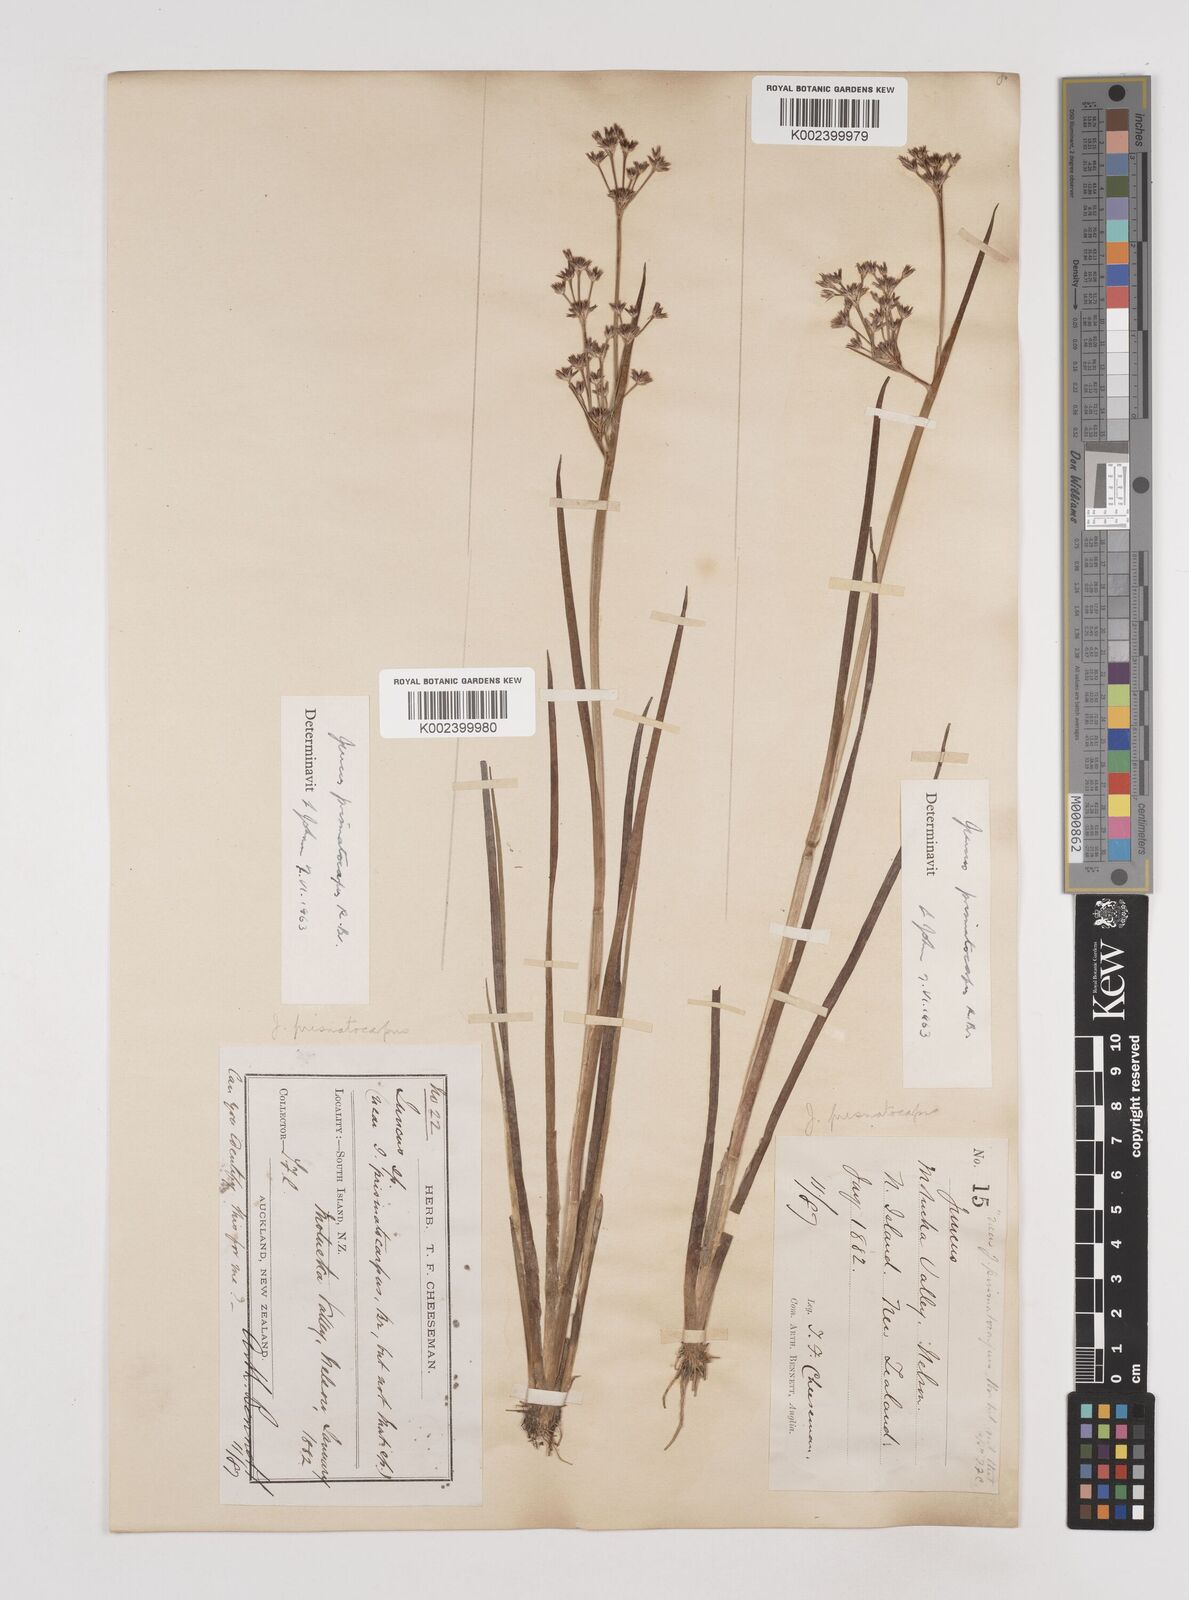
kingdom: Plantae
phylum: Tracheophyta
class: Liliopsida
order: Poales
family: Juncaceae
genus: Juncus
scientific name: Juncus prismatocarpus
